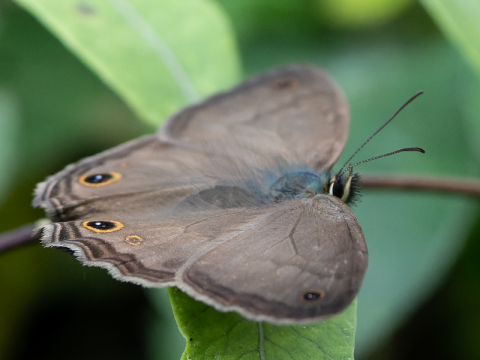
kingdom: Animalia
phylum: Arthropoda
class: Insecta
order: Lepidoptera
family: Nymphalidae
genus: Graphita
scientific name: Graphita griphe
